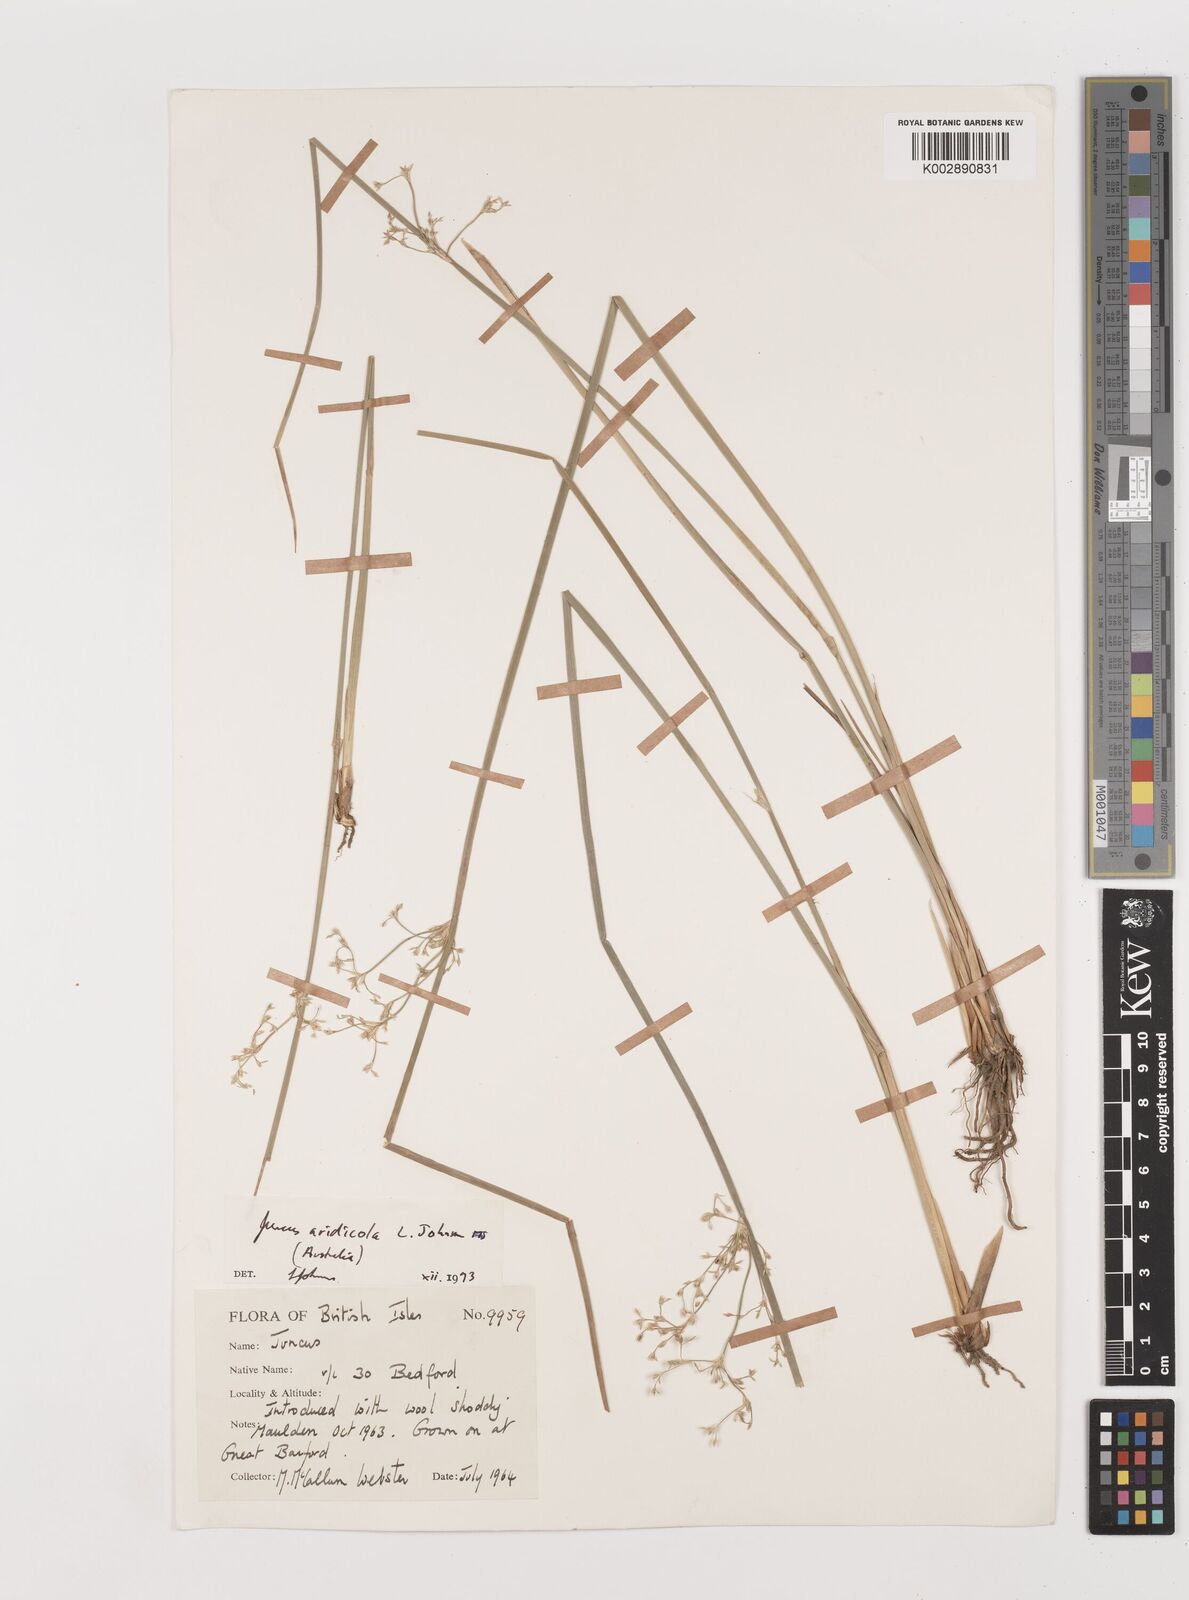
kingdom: Plantae
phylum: Tracheophyta
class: Liliopsida
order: Poales
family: Juncaceae
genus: Juncus
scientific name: Juncus aridicola
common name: Tussock rush
